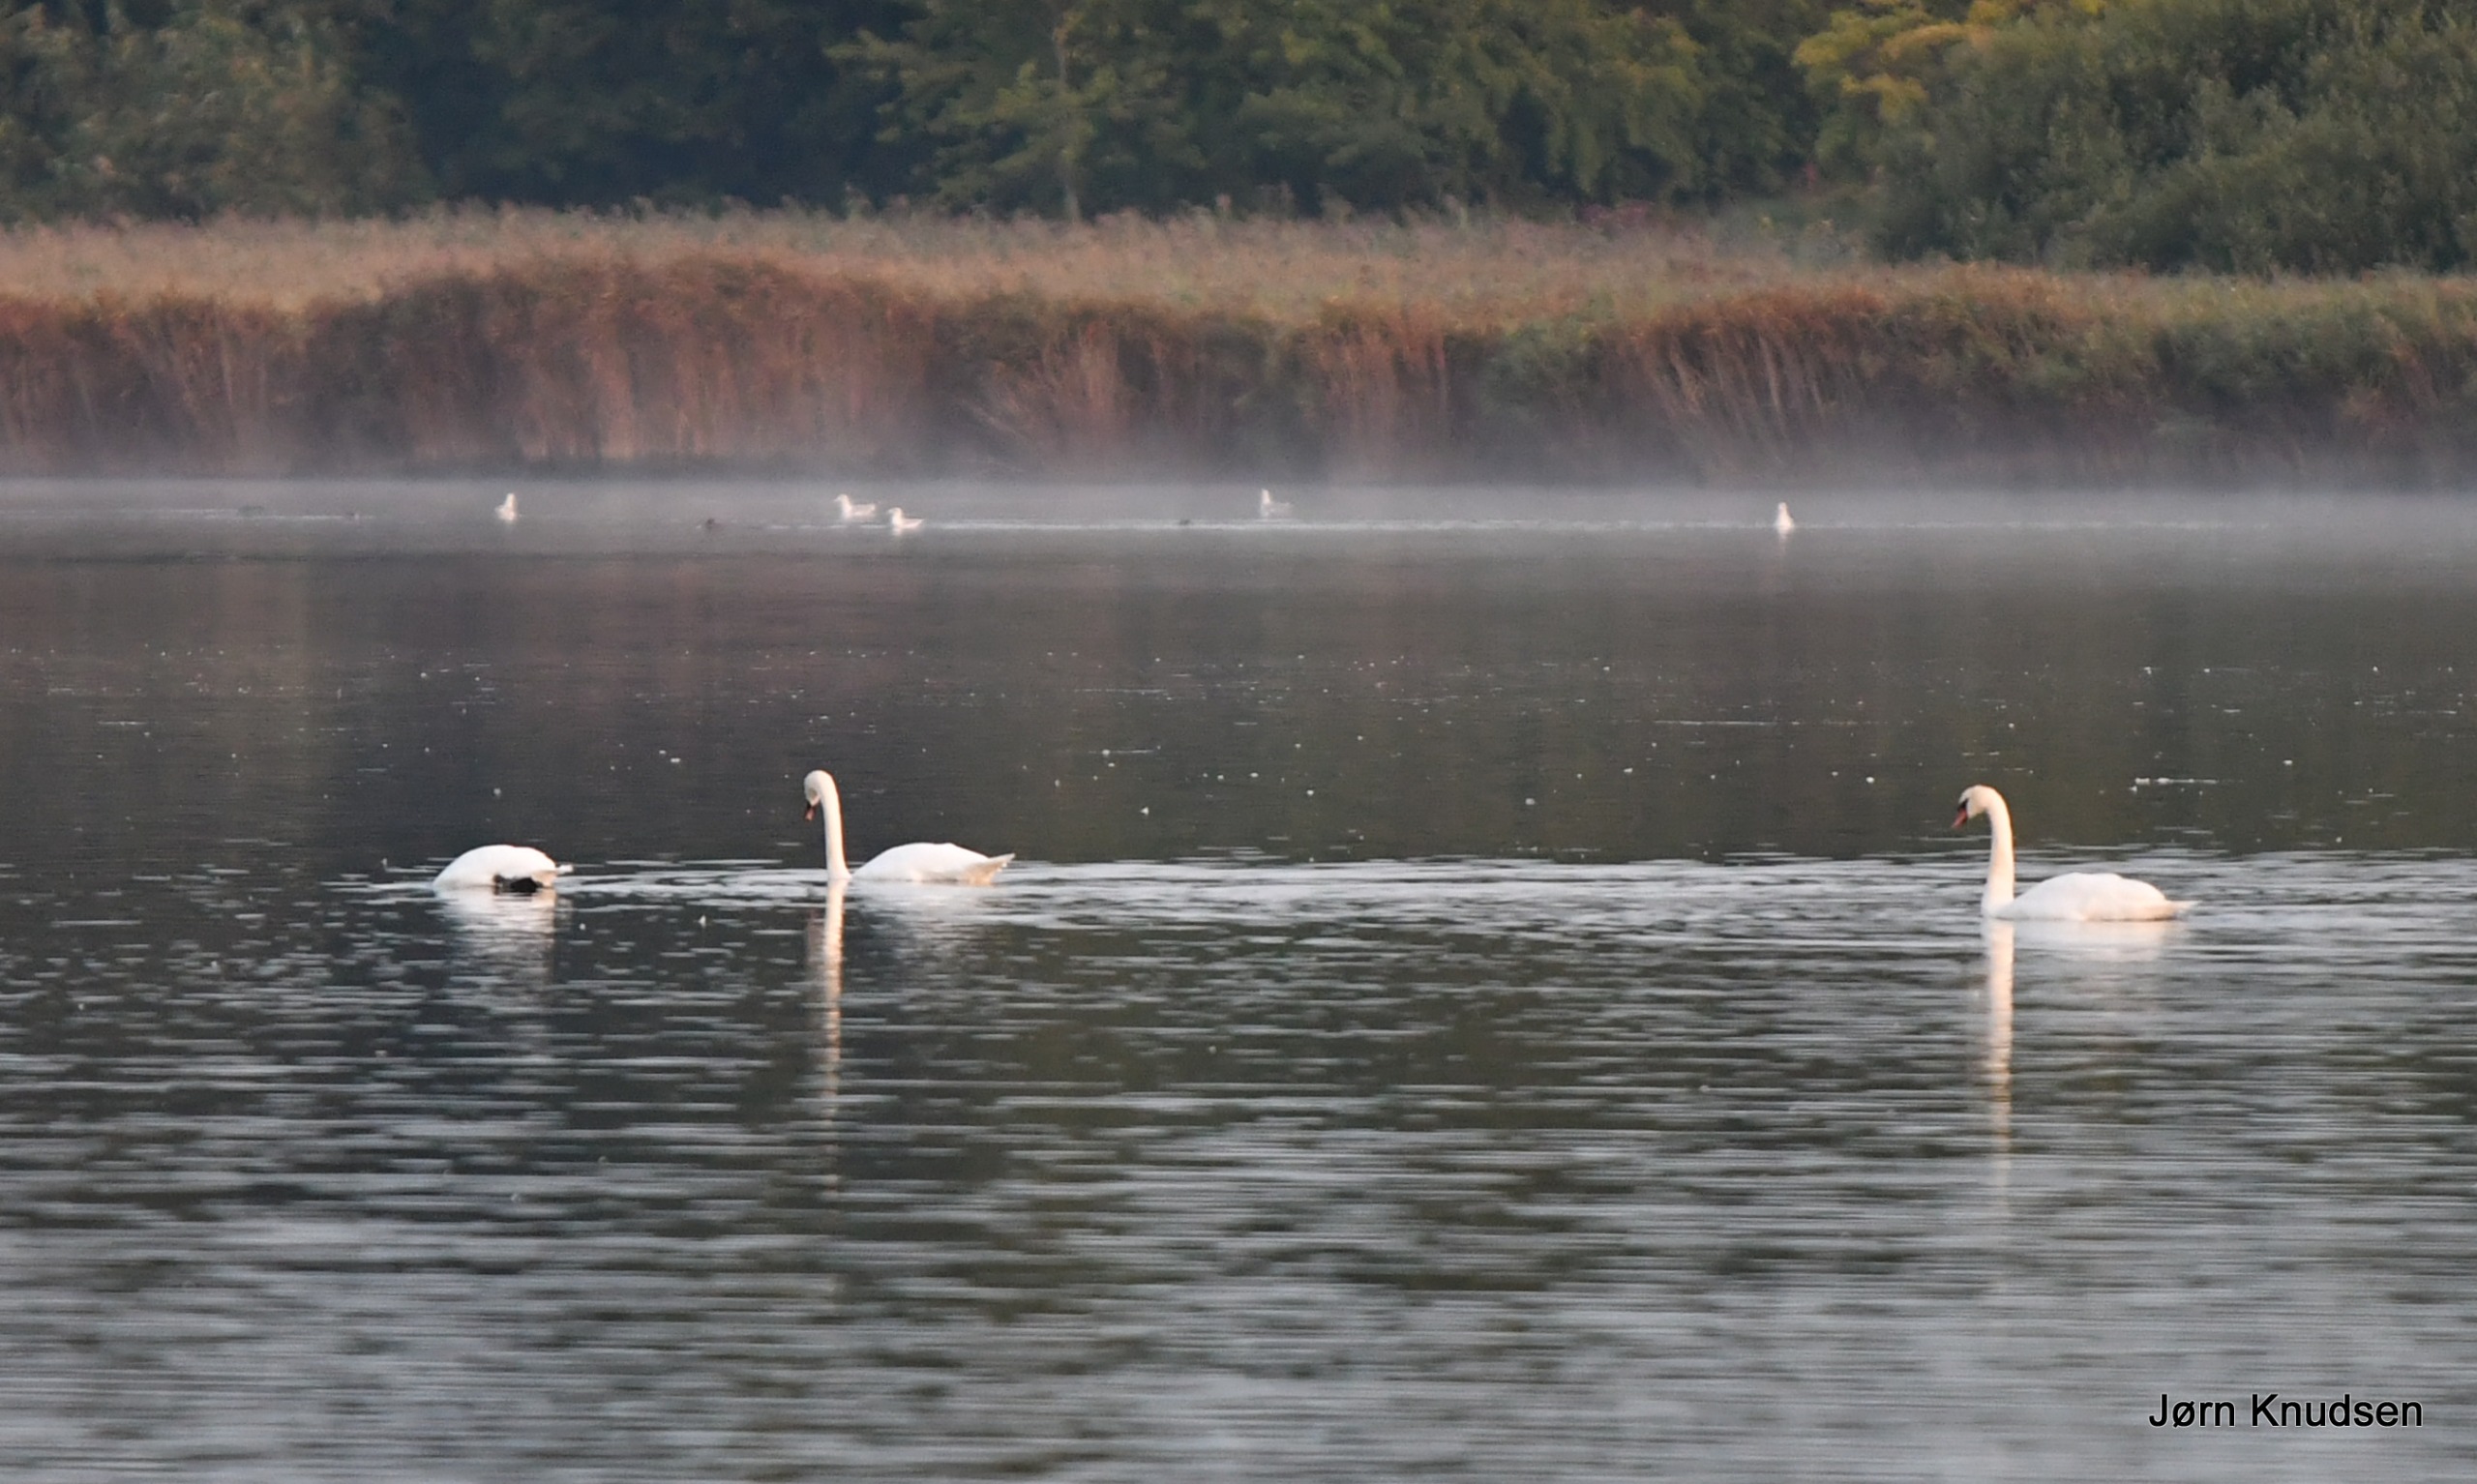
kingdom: Animalia
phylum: Chordata
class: Aves
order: Anseriformes
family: Anatidae
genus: Cygnus
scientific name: Cygnus olor
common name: Knopsvane
